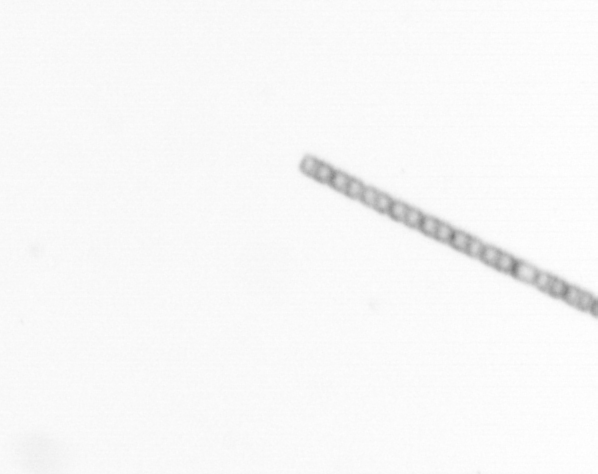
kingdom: Chromista
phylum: Ochrophyta
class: Bacillariophyceae
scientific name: Bacillariophyceae
